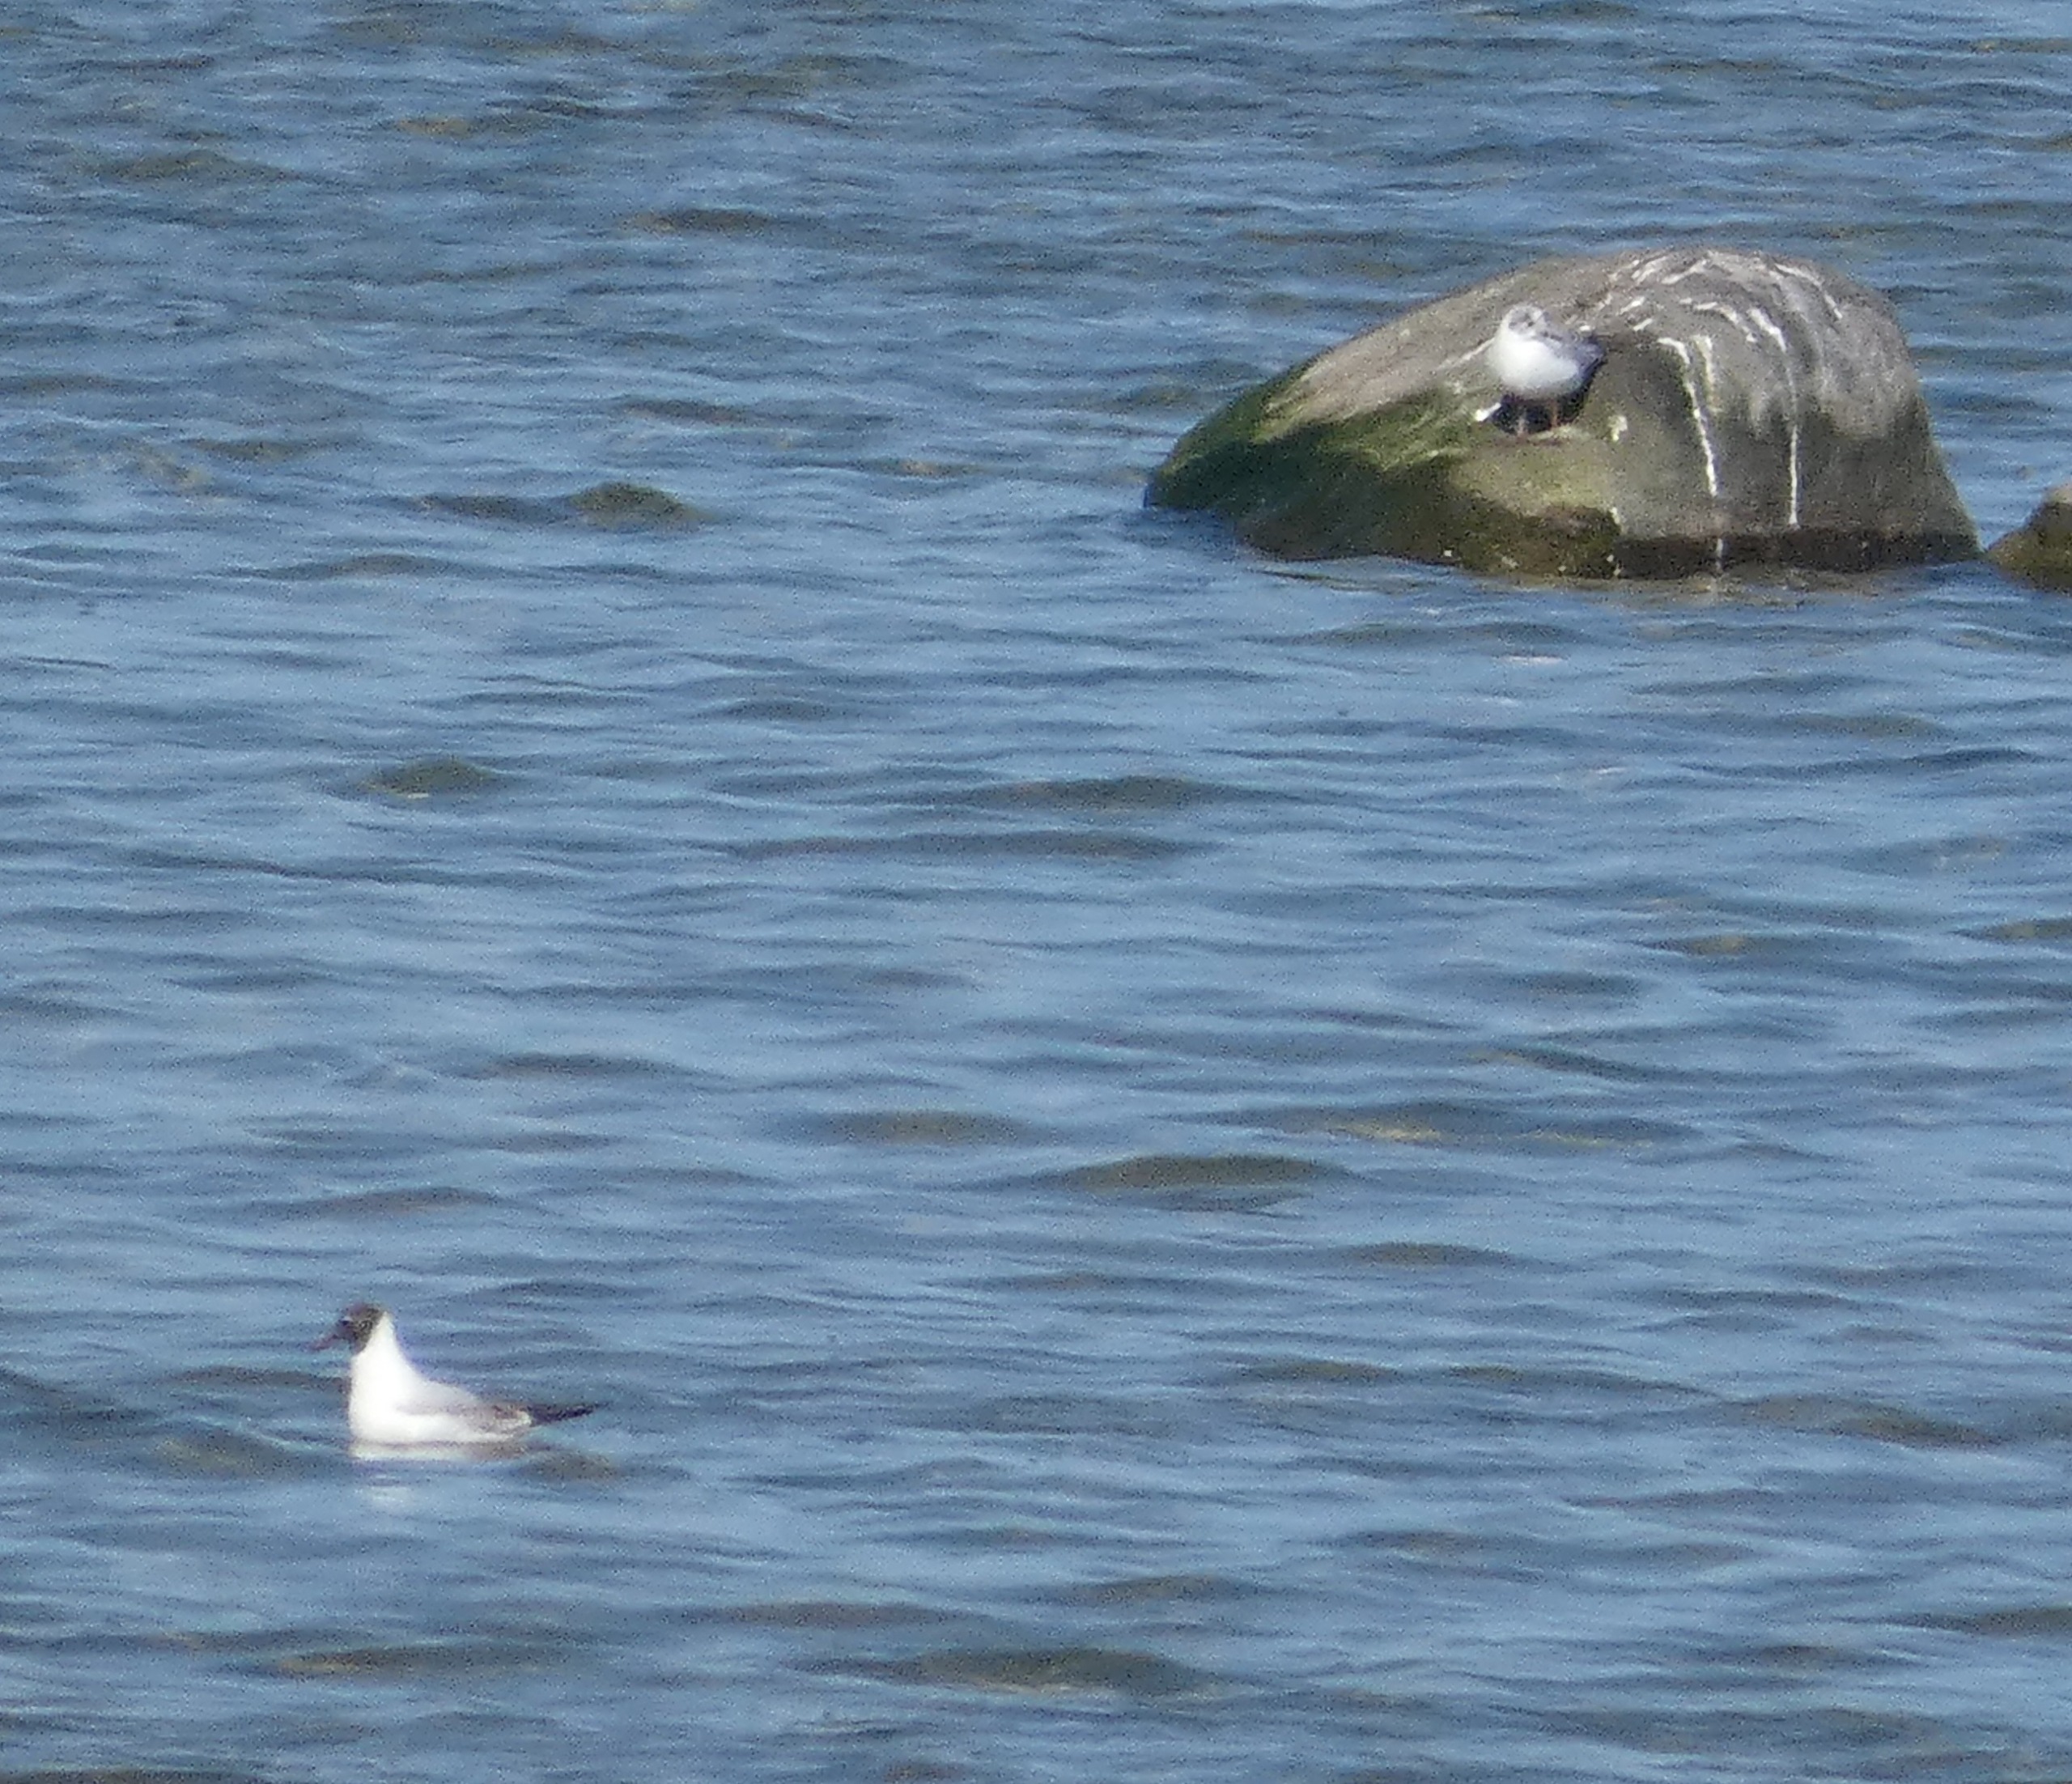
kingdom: Animalia
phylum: Chordata
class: Aves
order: Charadriiformes
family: Laridae
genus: Chroicocephalus
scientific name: Chroicocephalus ridibundus
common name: Hættemåge
